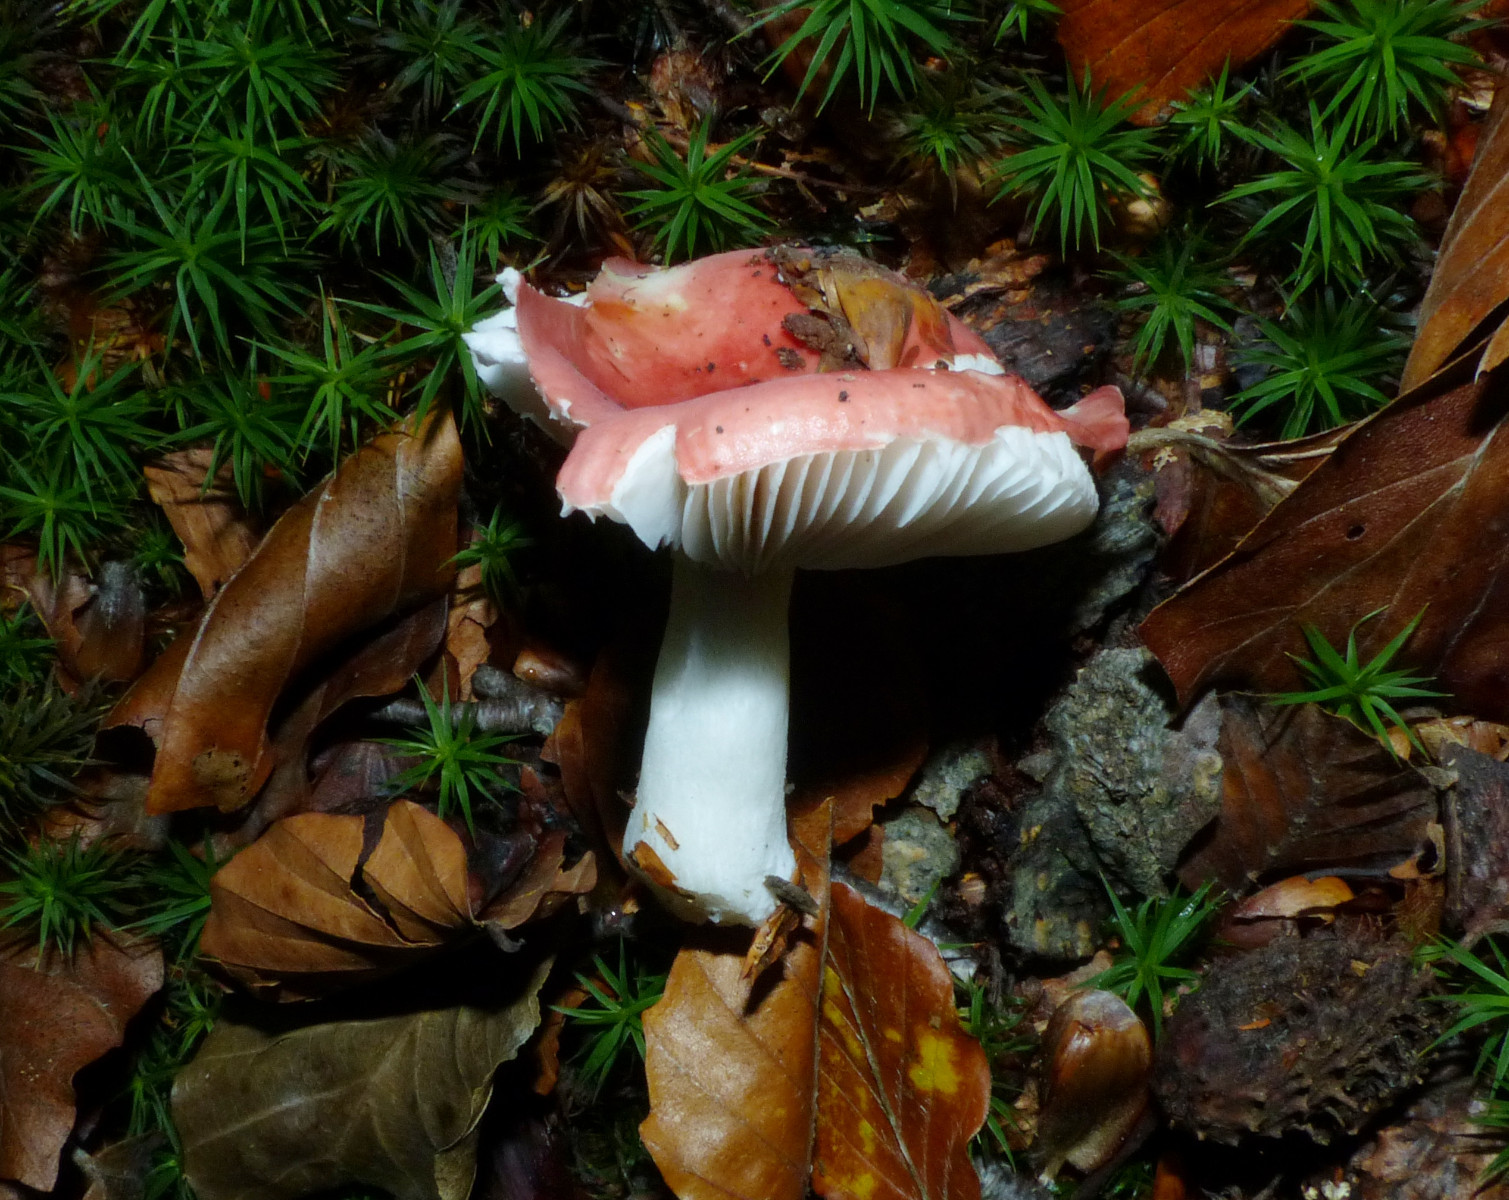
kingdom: Fungi
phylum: Basidiomycota
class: Agaricomycetes
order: Russulales
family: Russulaceae
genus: Russula
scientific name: Russula nobilis
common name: lille gift-skørhat
